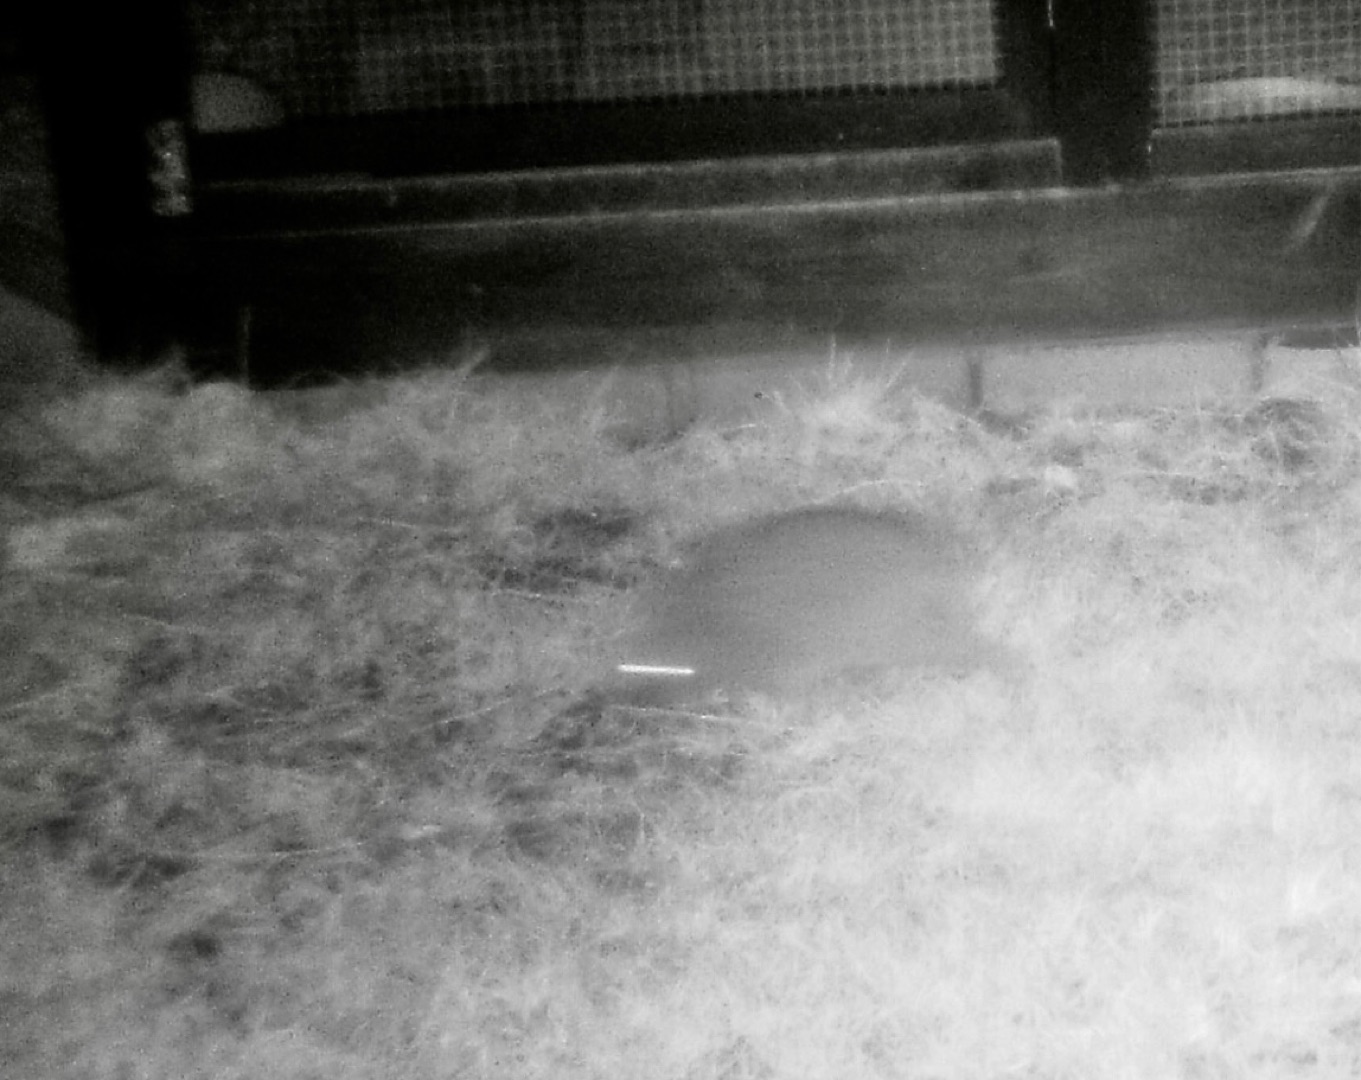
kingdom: Animalia
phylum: Chordata
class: Mammalia
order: Erinaceomorpha
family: Erinaceidae
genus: Erinaceus
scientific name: Erinaceus europaeus
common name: Pindsvin
